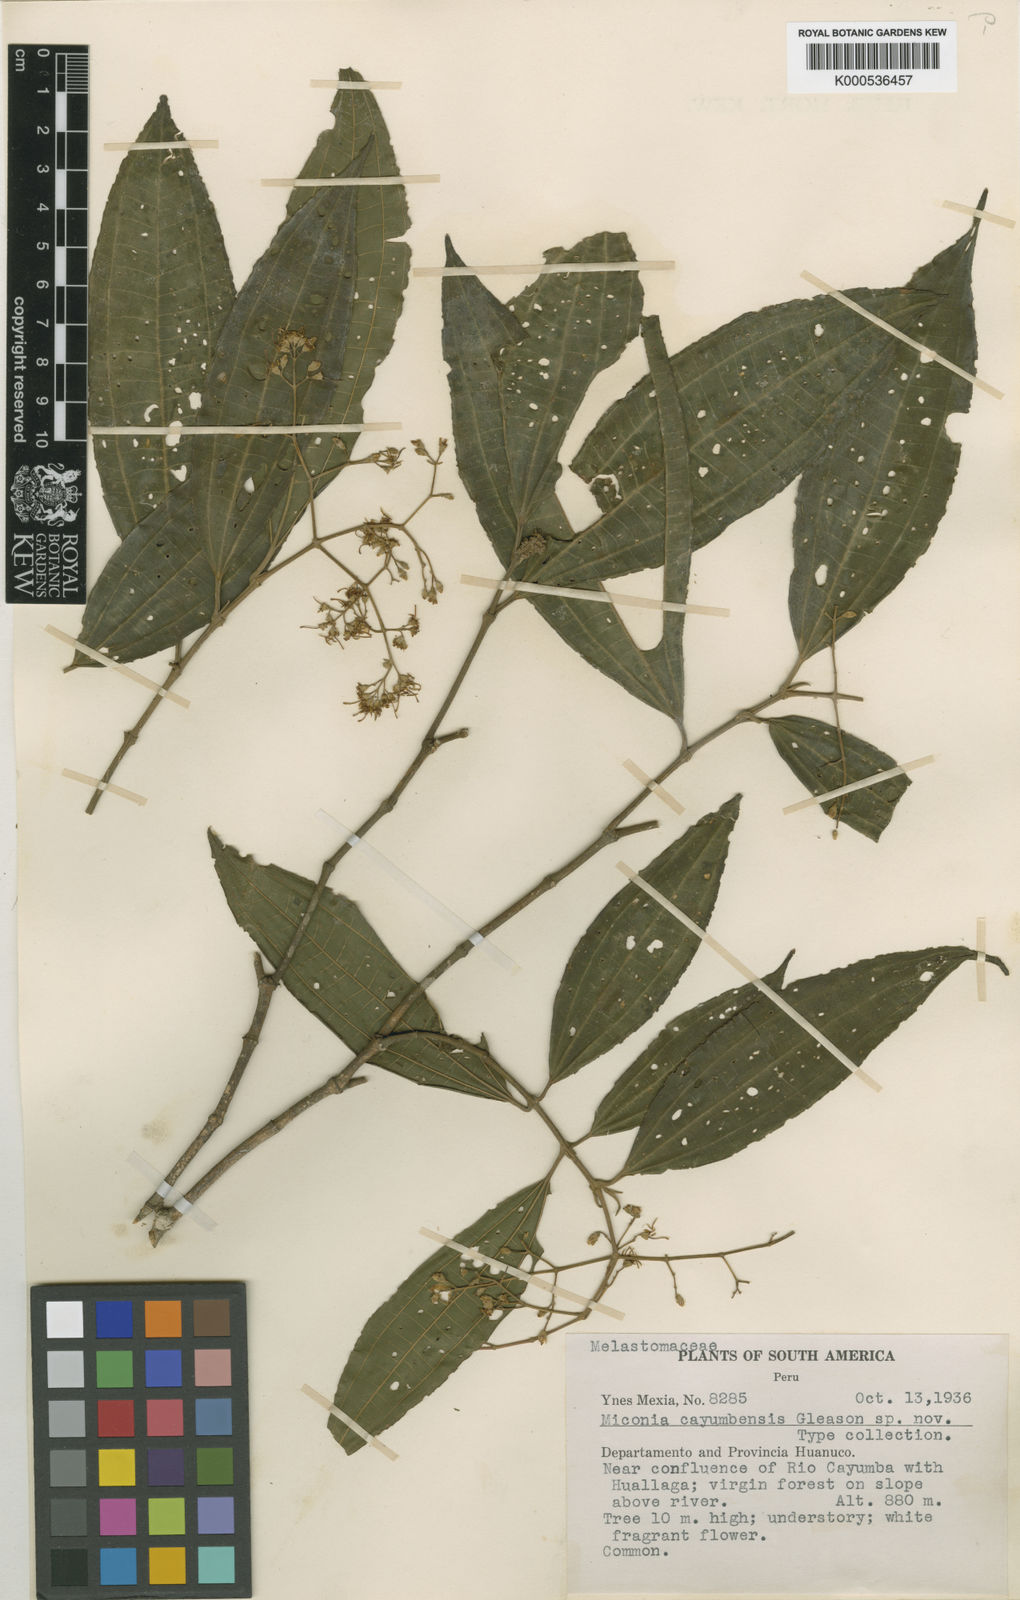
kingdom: Plantae
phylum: Tracheophyta
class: Magnoliopsida
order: Myrtales
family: Melastomataceae
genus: Miconia
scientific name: Miconia affinis
